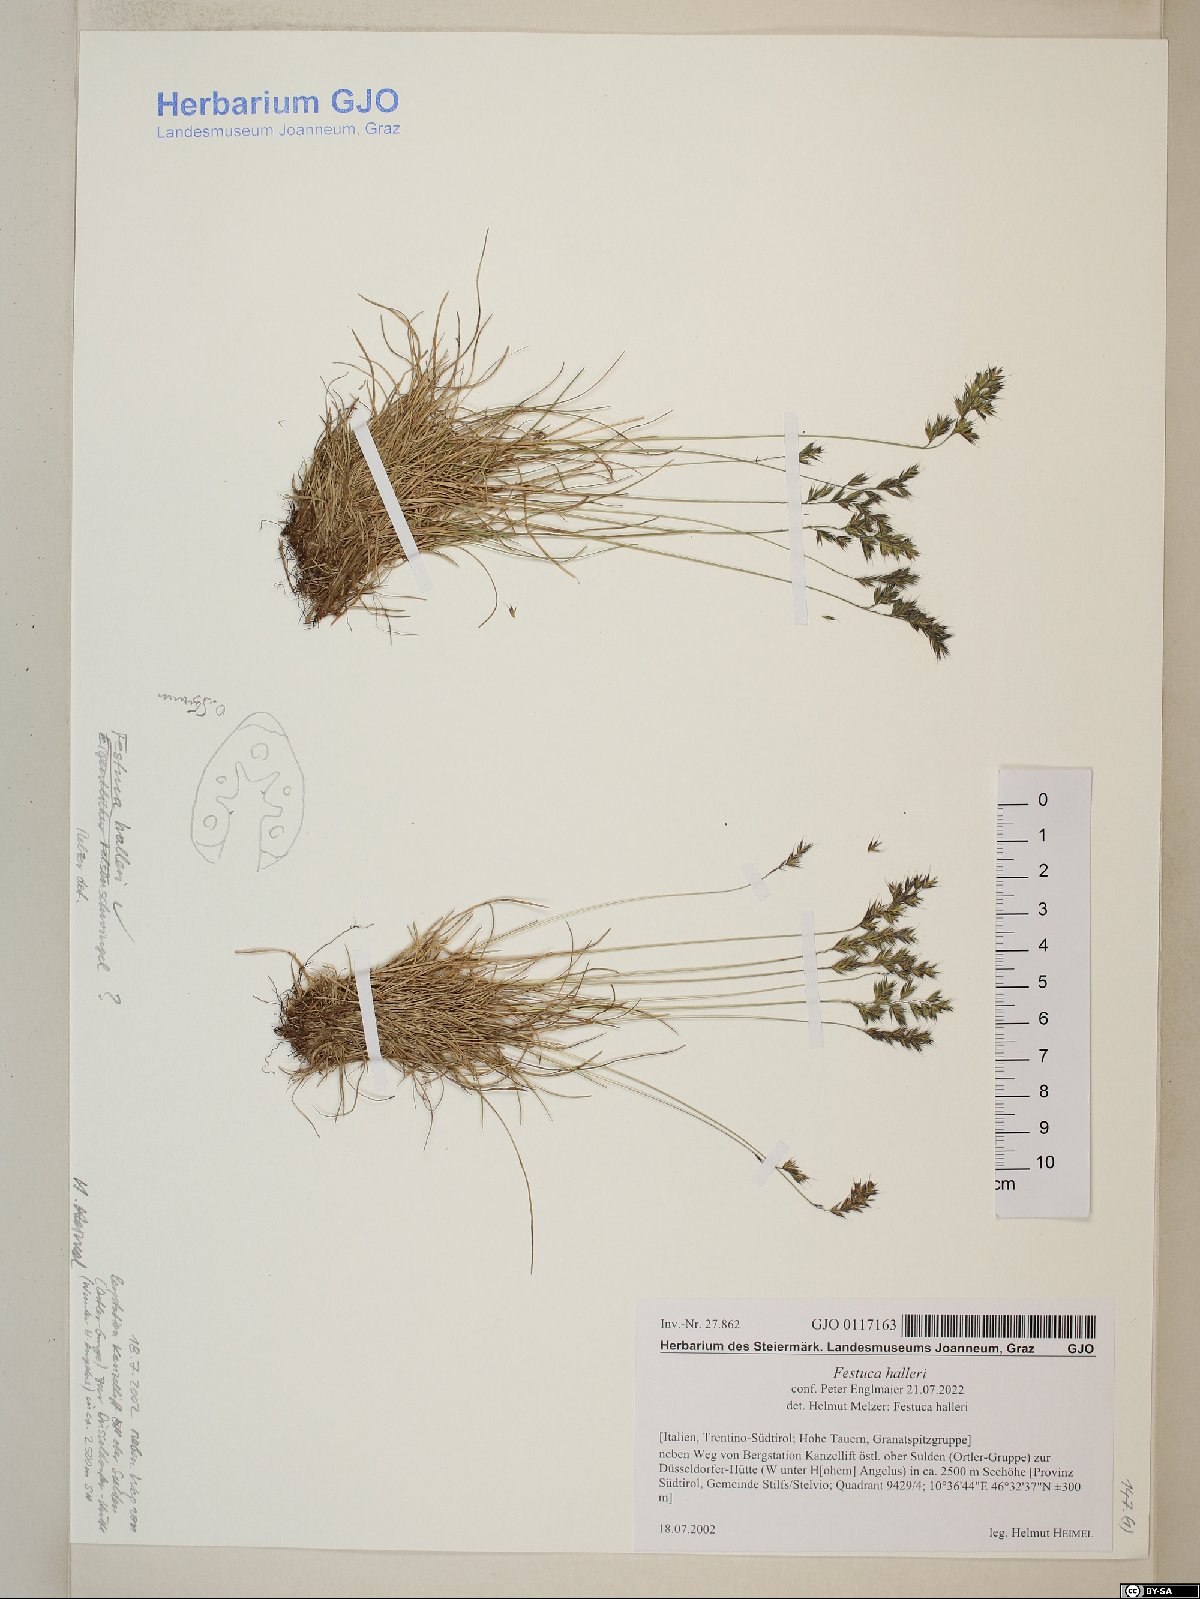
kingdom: Plantae
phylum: Tracheophyta
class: Liliopsida
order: Poales
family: Poaceae
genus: Festuca
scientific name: Festuca halleri
